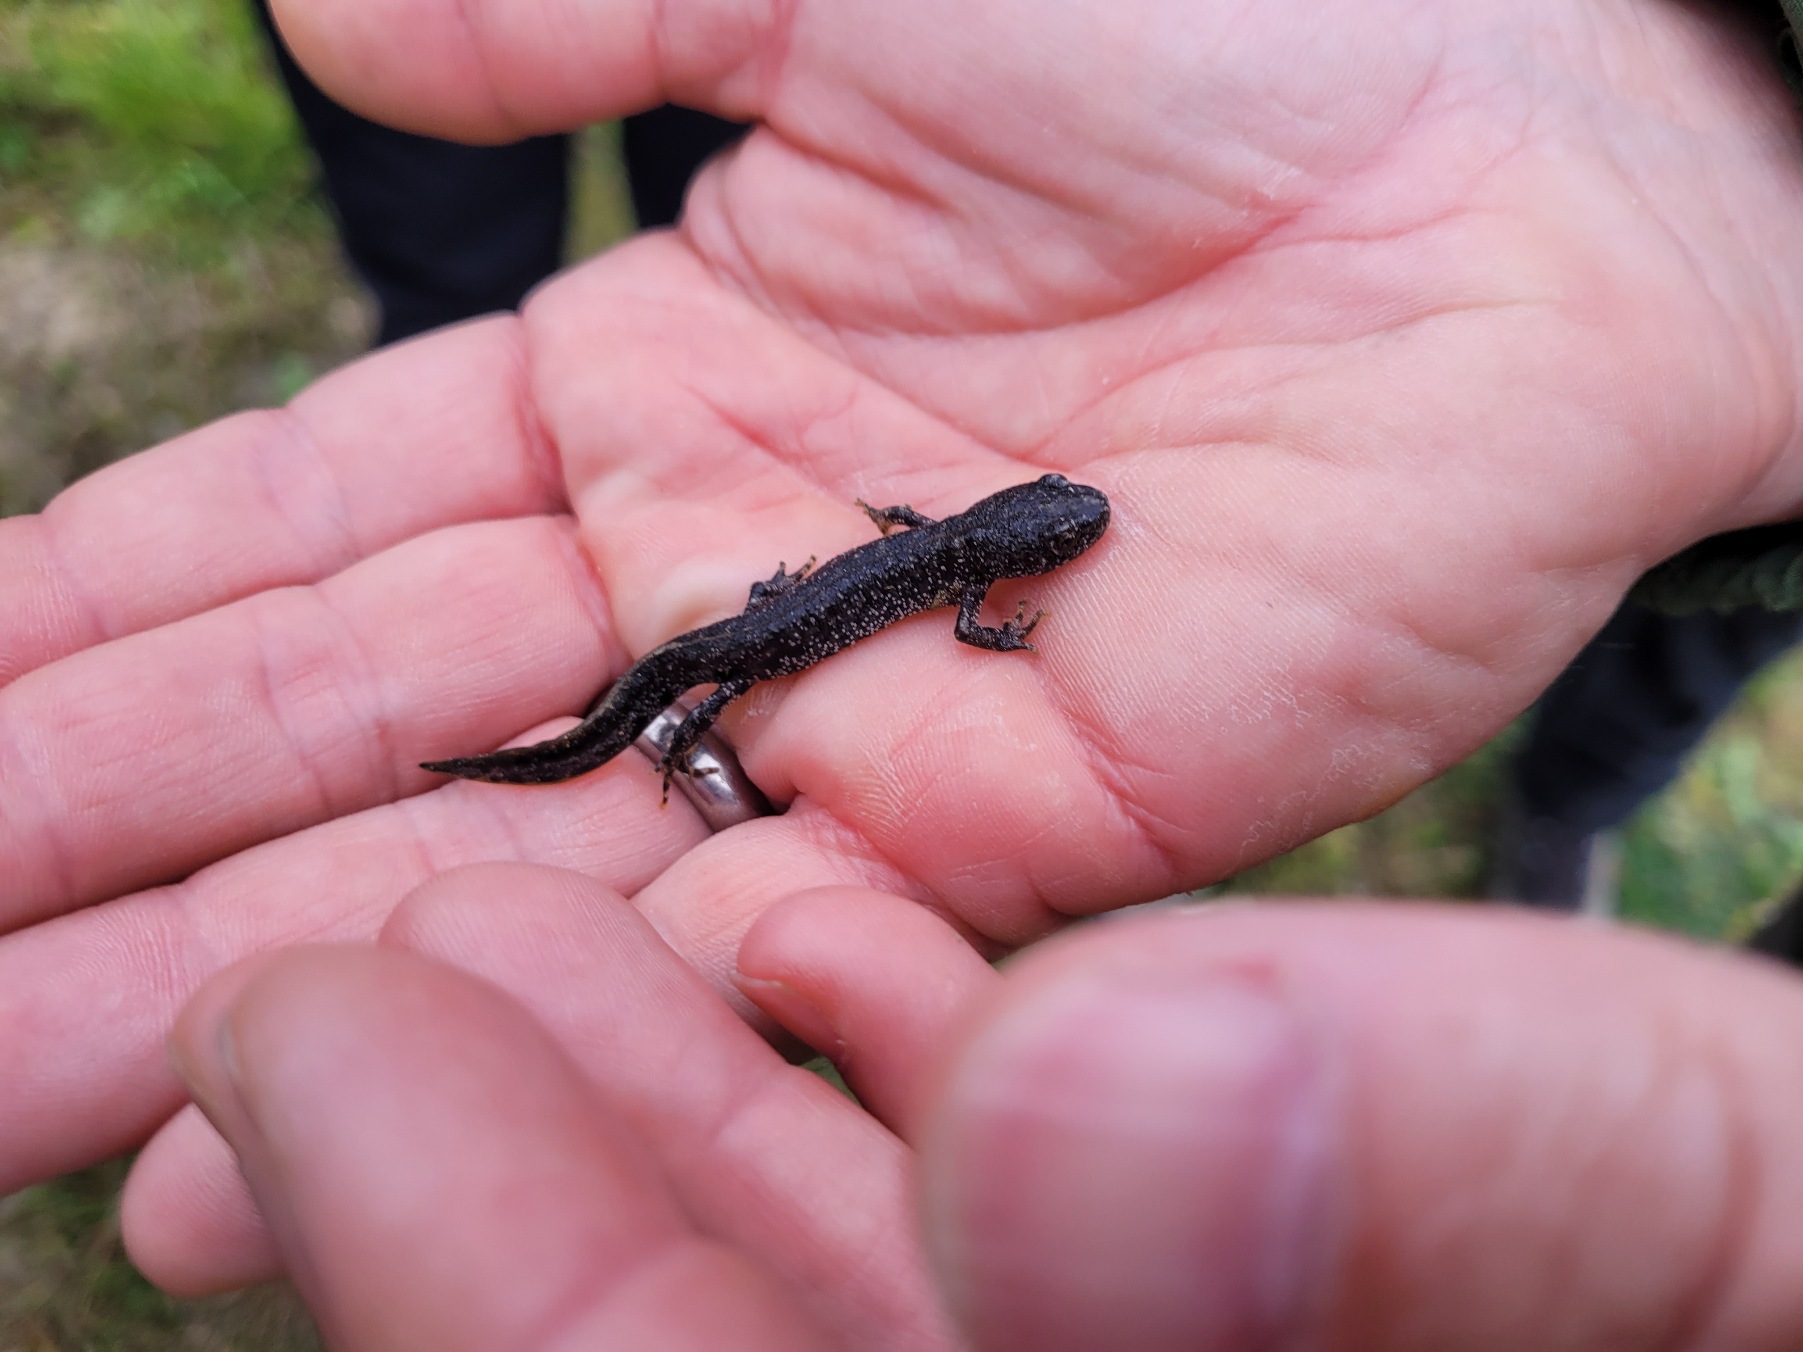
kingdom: Animalia
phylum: Chordata
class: Amphibia
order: Caudata
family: Salamandridae
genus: Triturus
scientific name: Triturus cristatus
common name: Stor vandsalamander
